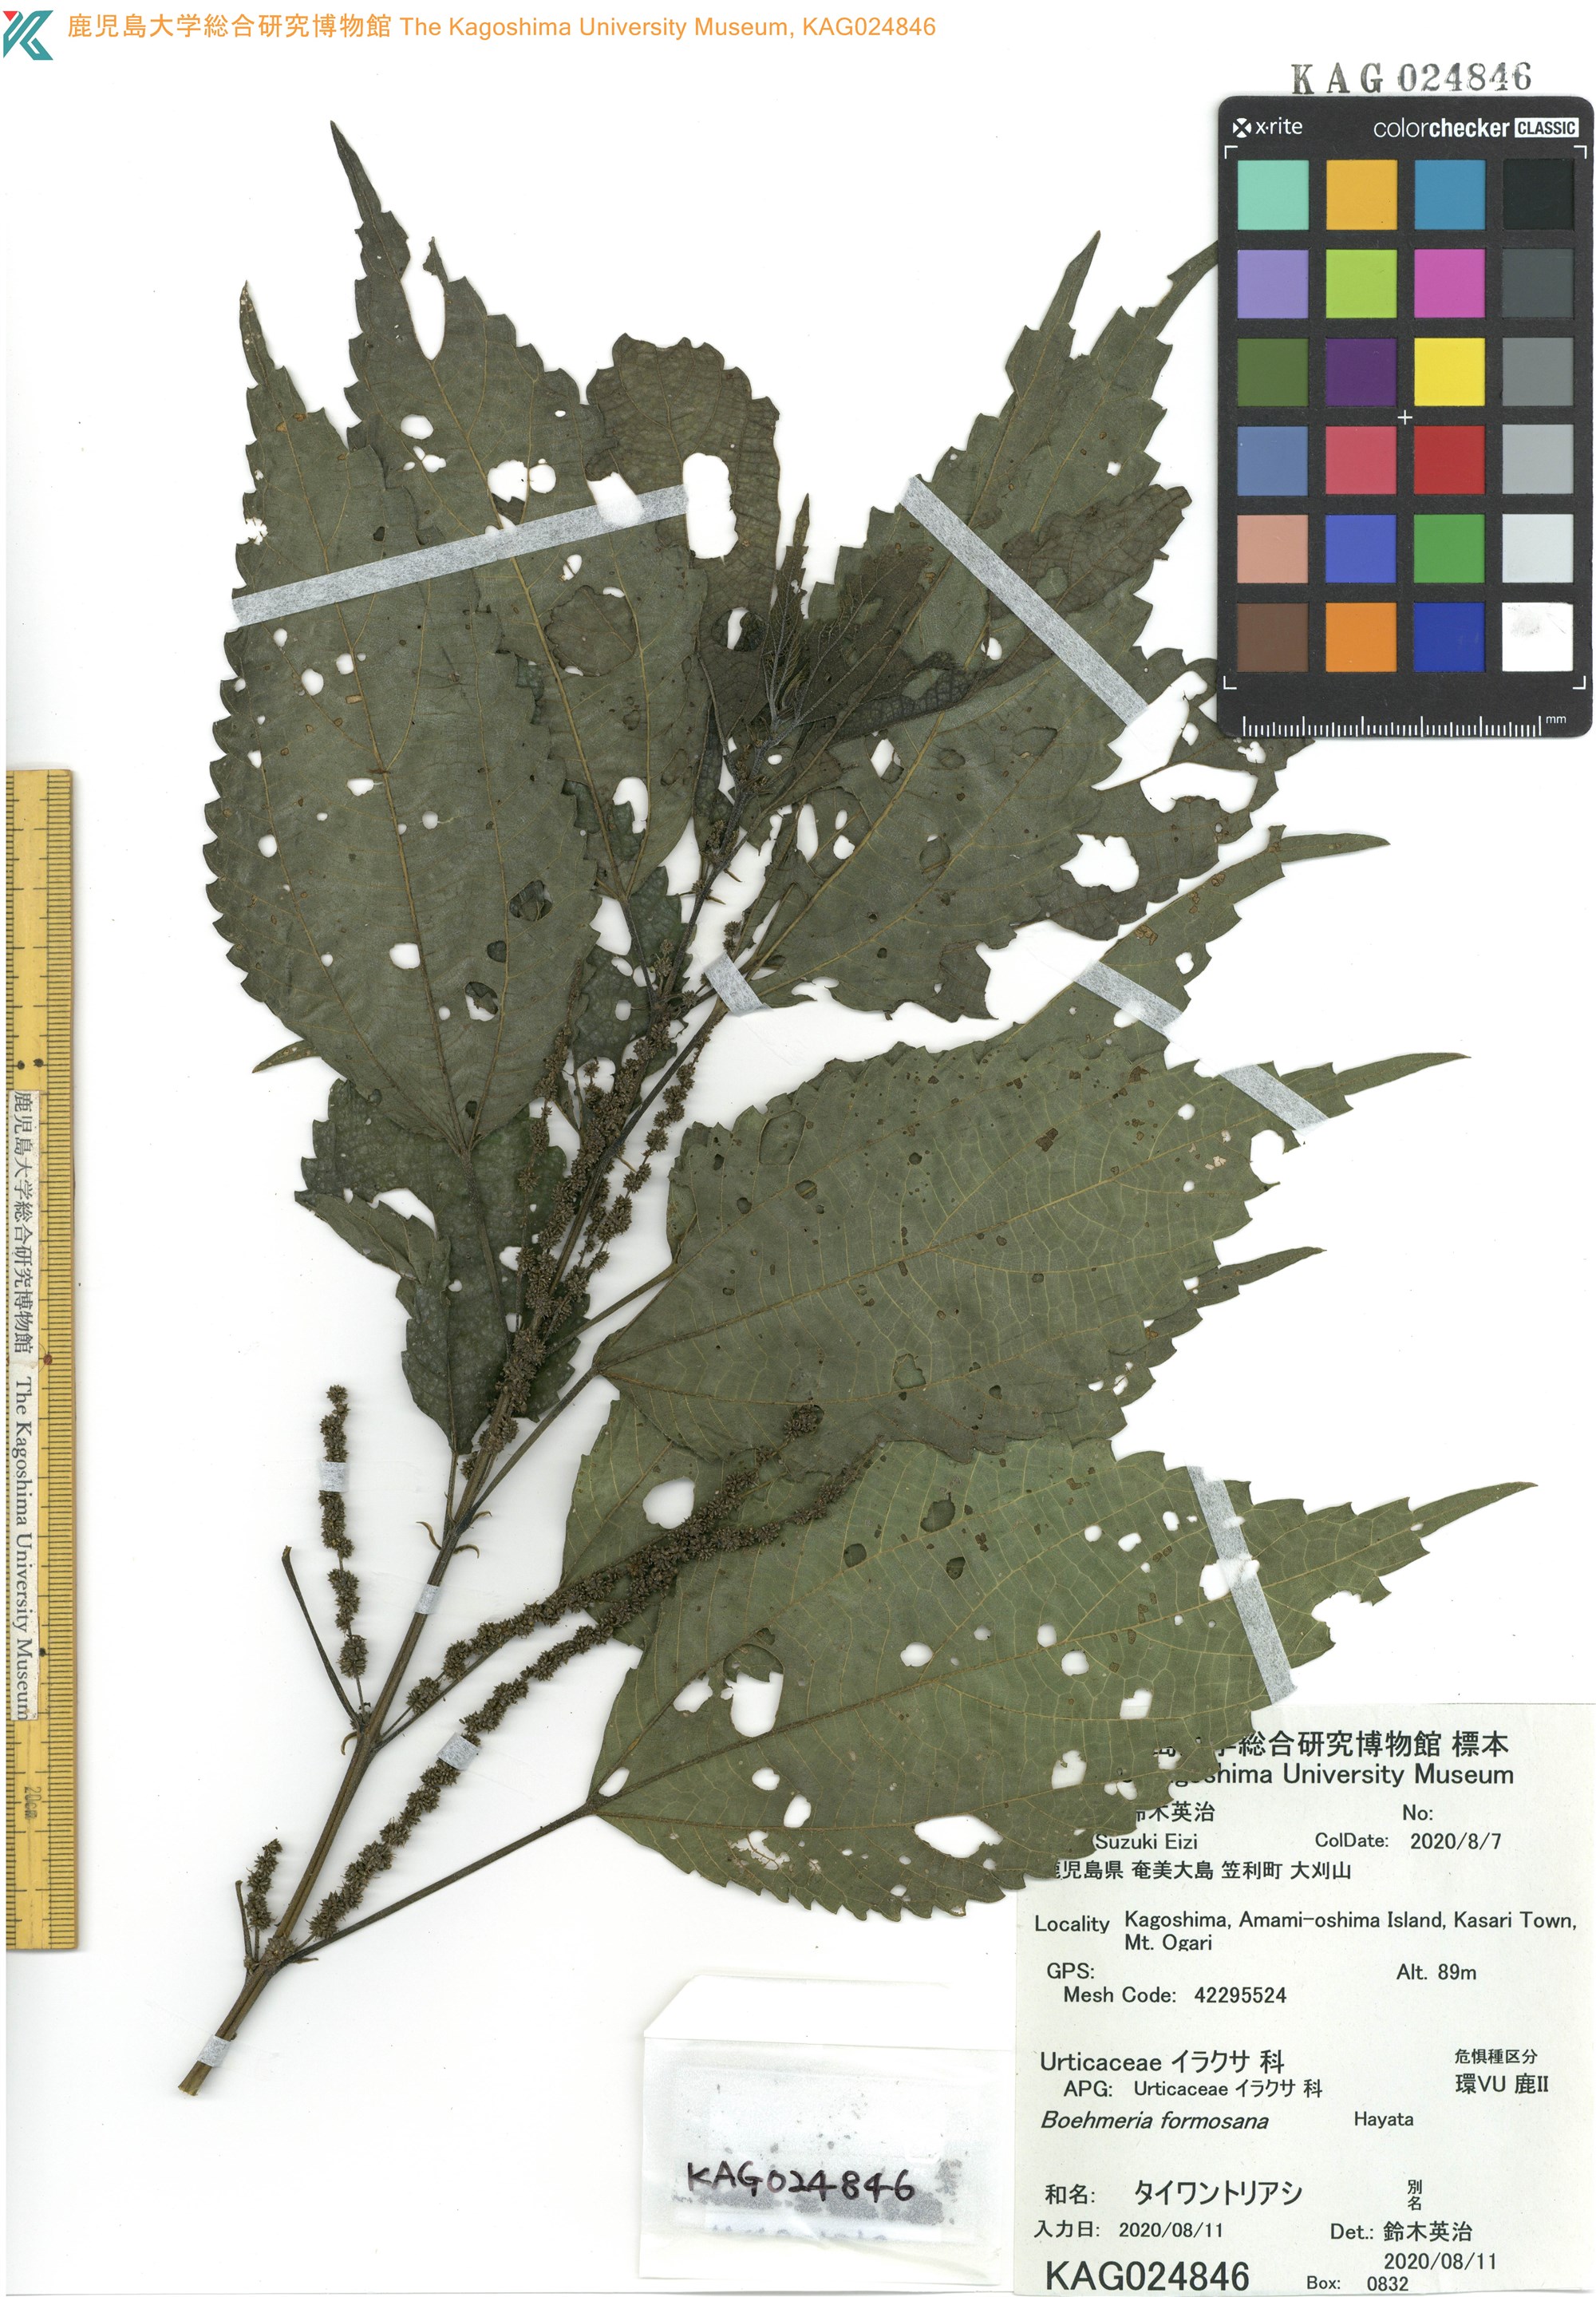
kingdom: Plantae
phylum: Tracheophyta
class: Magnoliopsida
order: Rosales
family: Urticaceae
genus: Boehmeria
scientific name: Boehmeria sieboldiana
